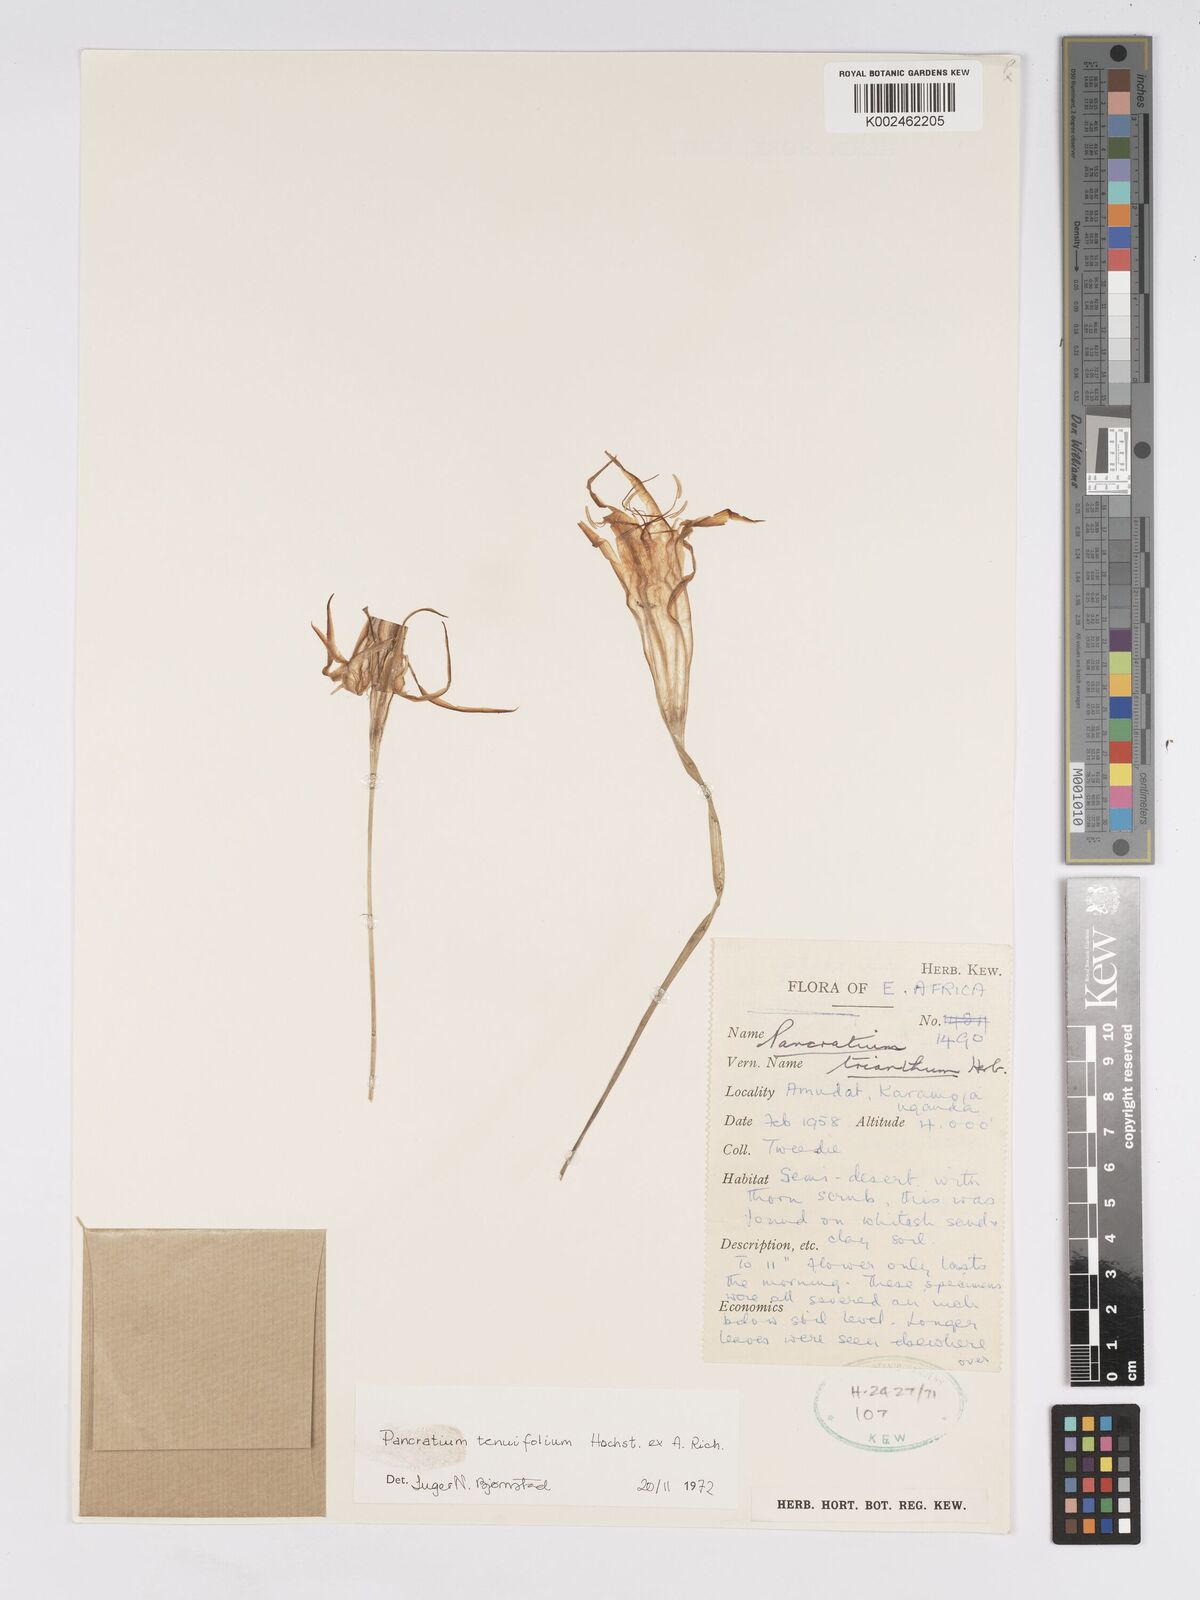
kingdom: Plantae
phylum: Tracheophyta
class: Liliopsida
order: Asparagales
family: Amaryllidaceae
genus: Pancratium
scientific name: Pancratium tenuifolium
